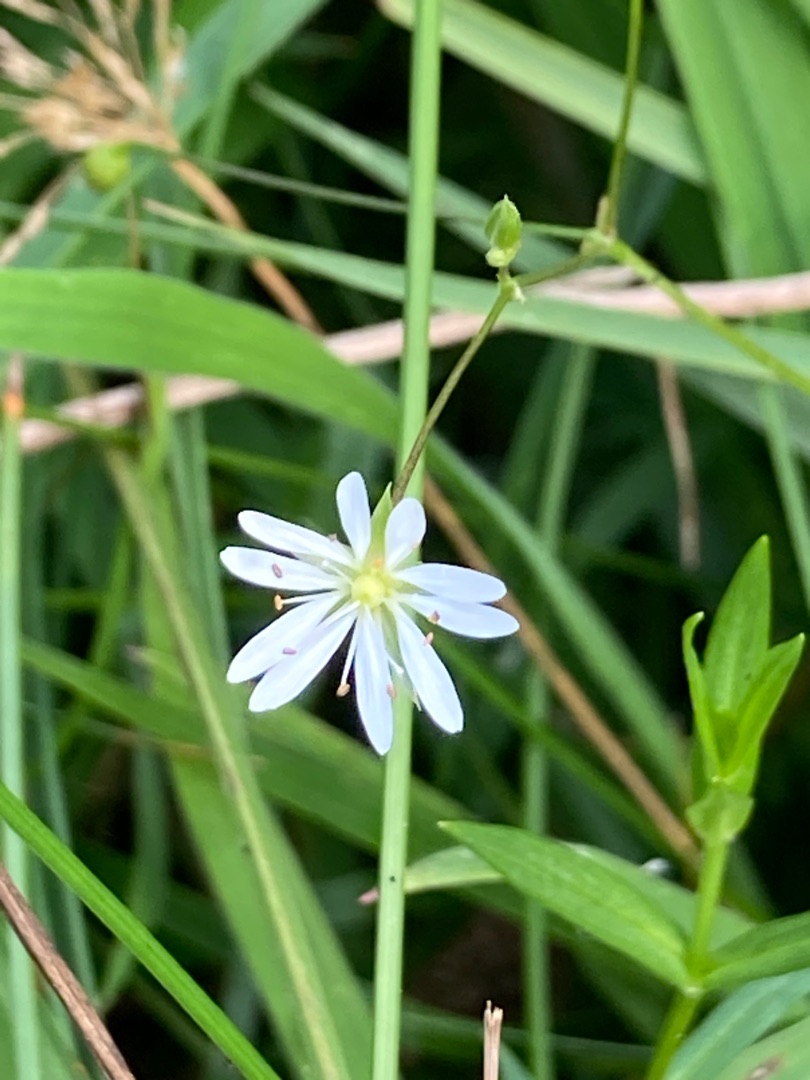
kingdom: Plantae
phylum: Tracheophyta
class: Magnoliopsida
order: Caryophyllales
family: Caryophyllaceae
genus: Stellaria
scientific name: Stellaria graminea
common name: Græsbladet fladstjerne
